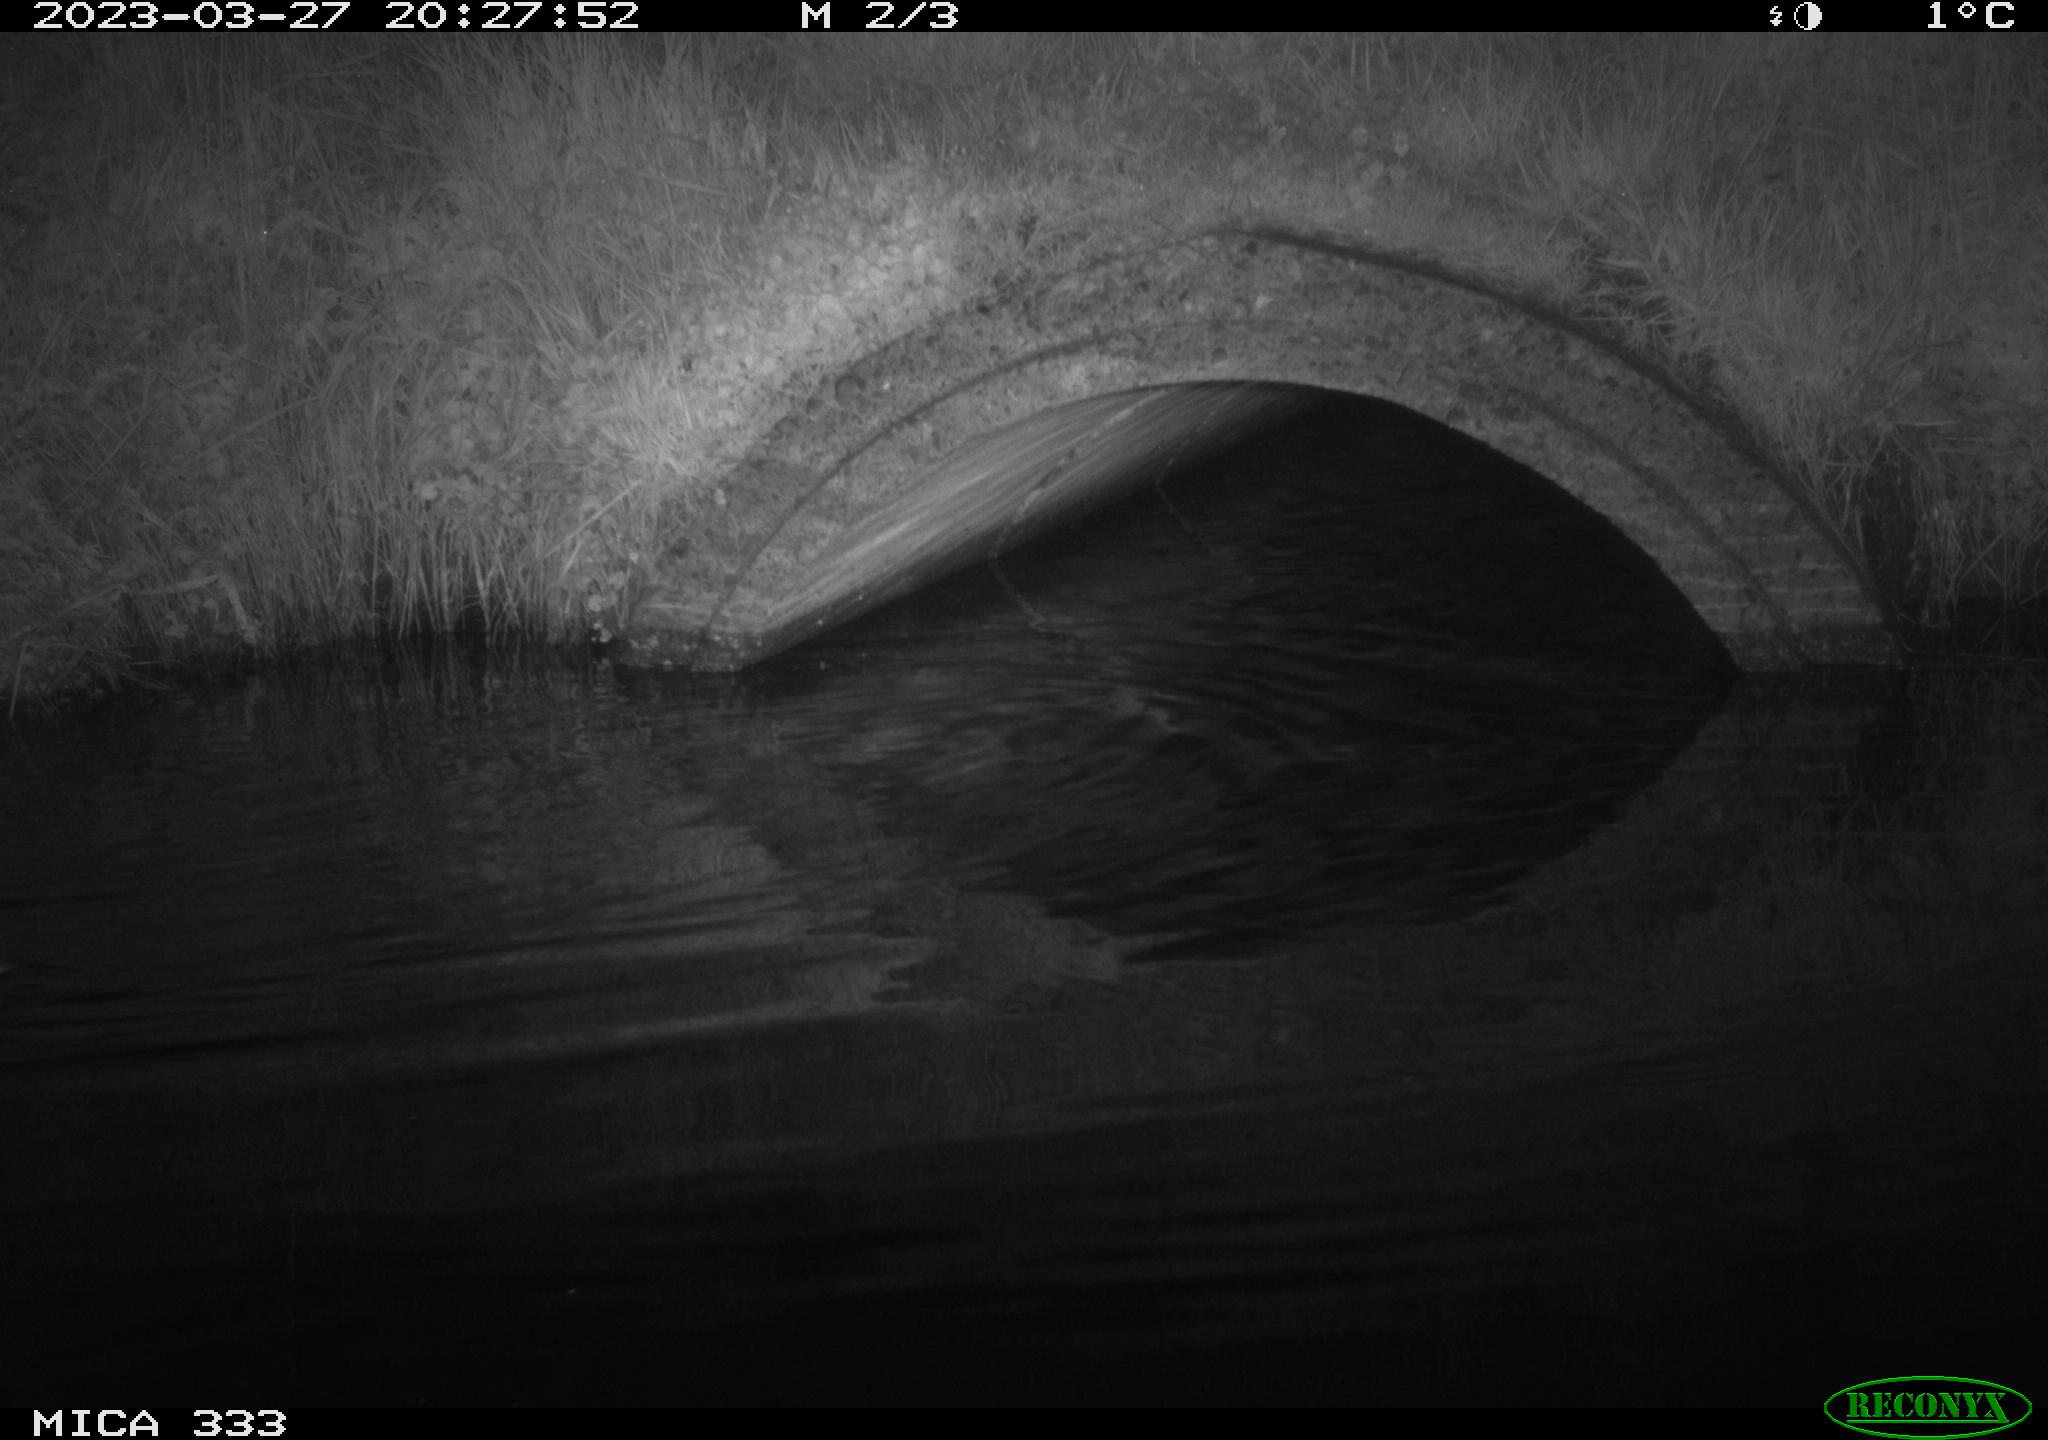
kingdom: Animalia
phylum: Chordata
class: Aves
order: Anseriformes
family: Anatidae
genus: Anas
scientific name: Anas platyrhynchos
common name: Mallard
